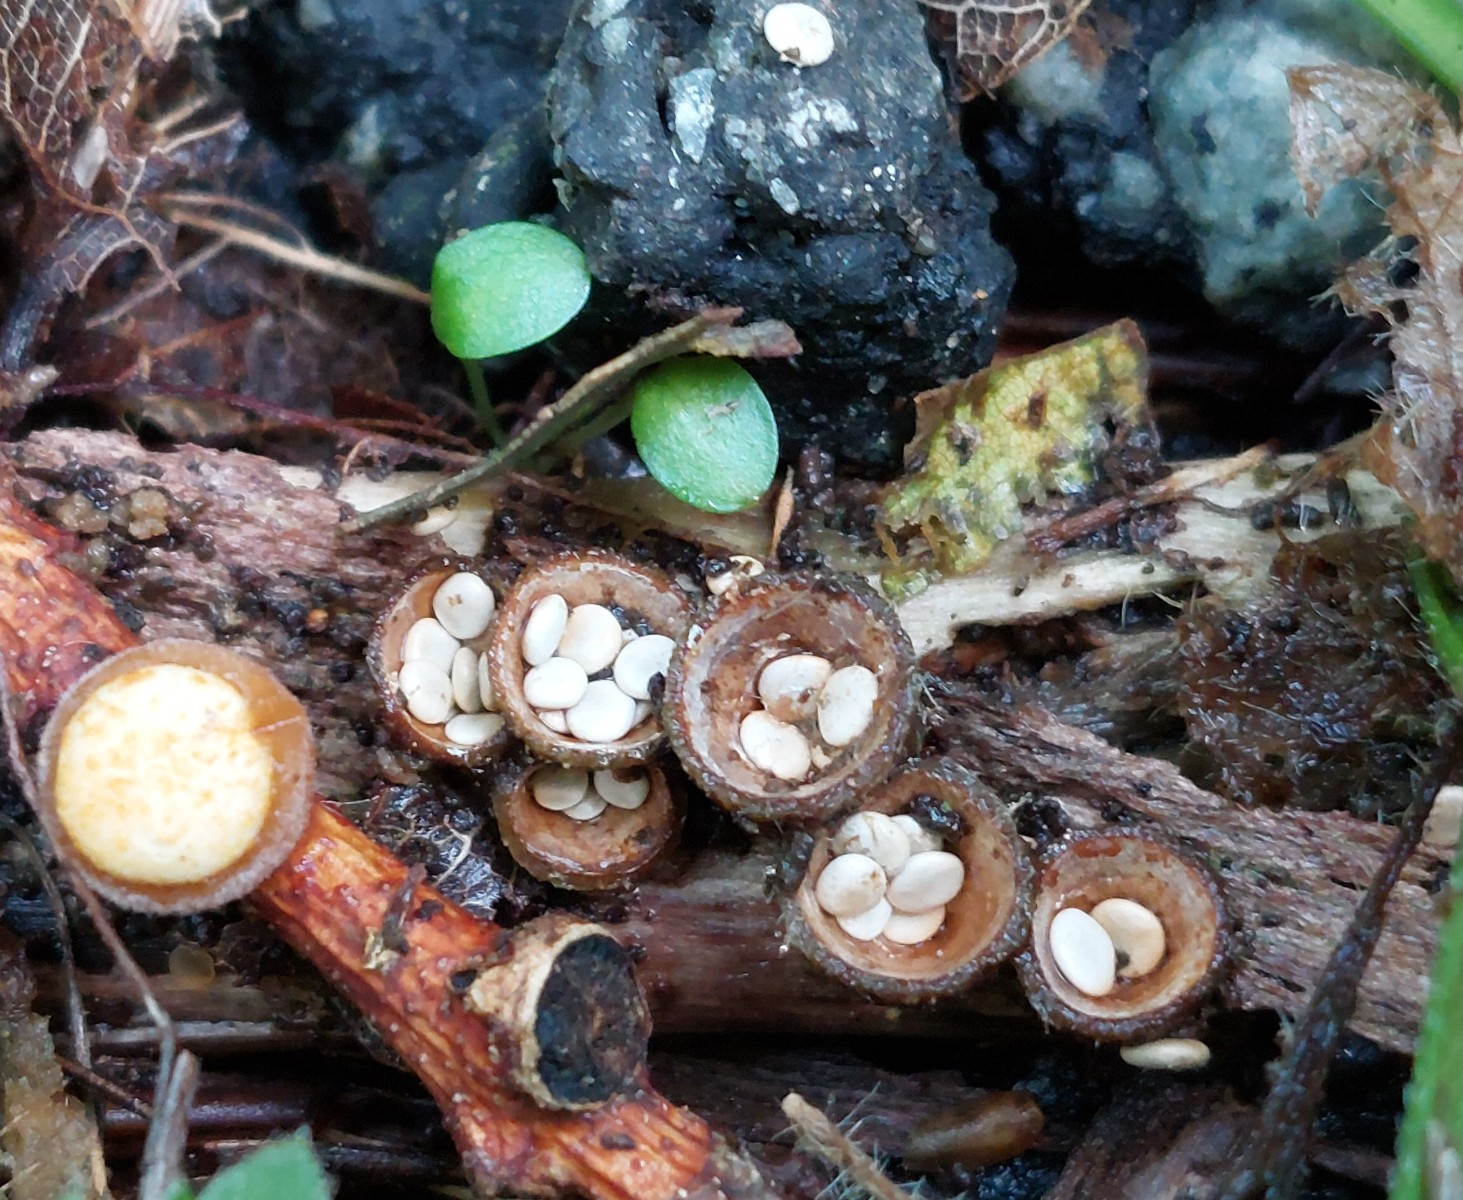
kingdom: Fungi
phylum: Basidiomycota
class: Agaricomycetes
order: Agaricales
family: Nidulariaceae
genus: Crucibulum
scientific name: Crucibulum crucibuliforme
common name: krukkesvamp
